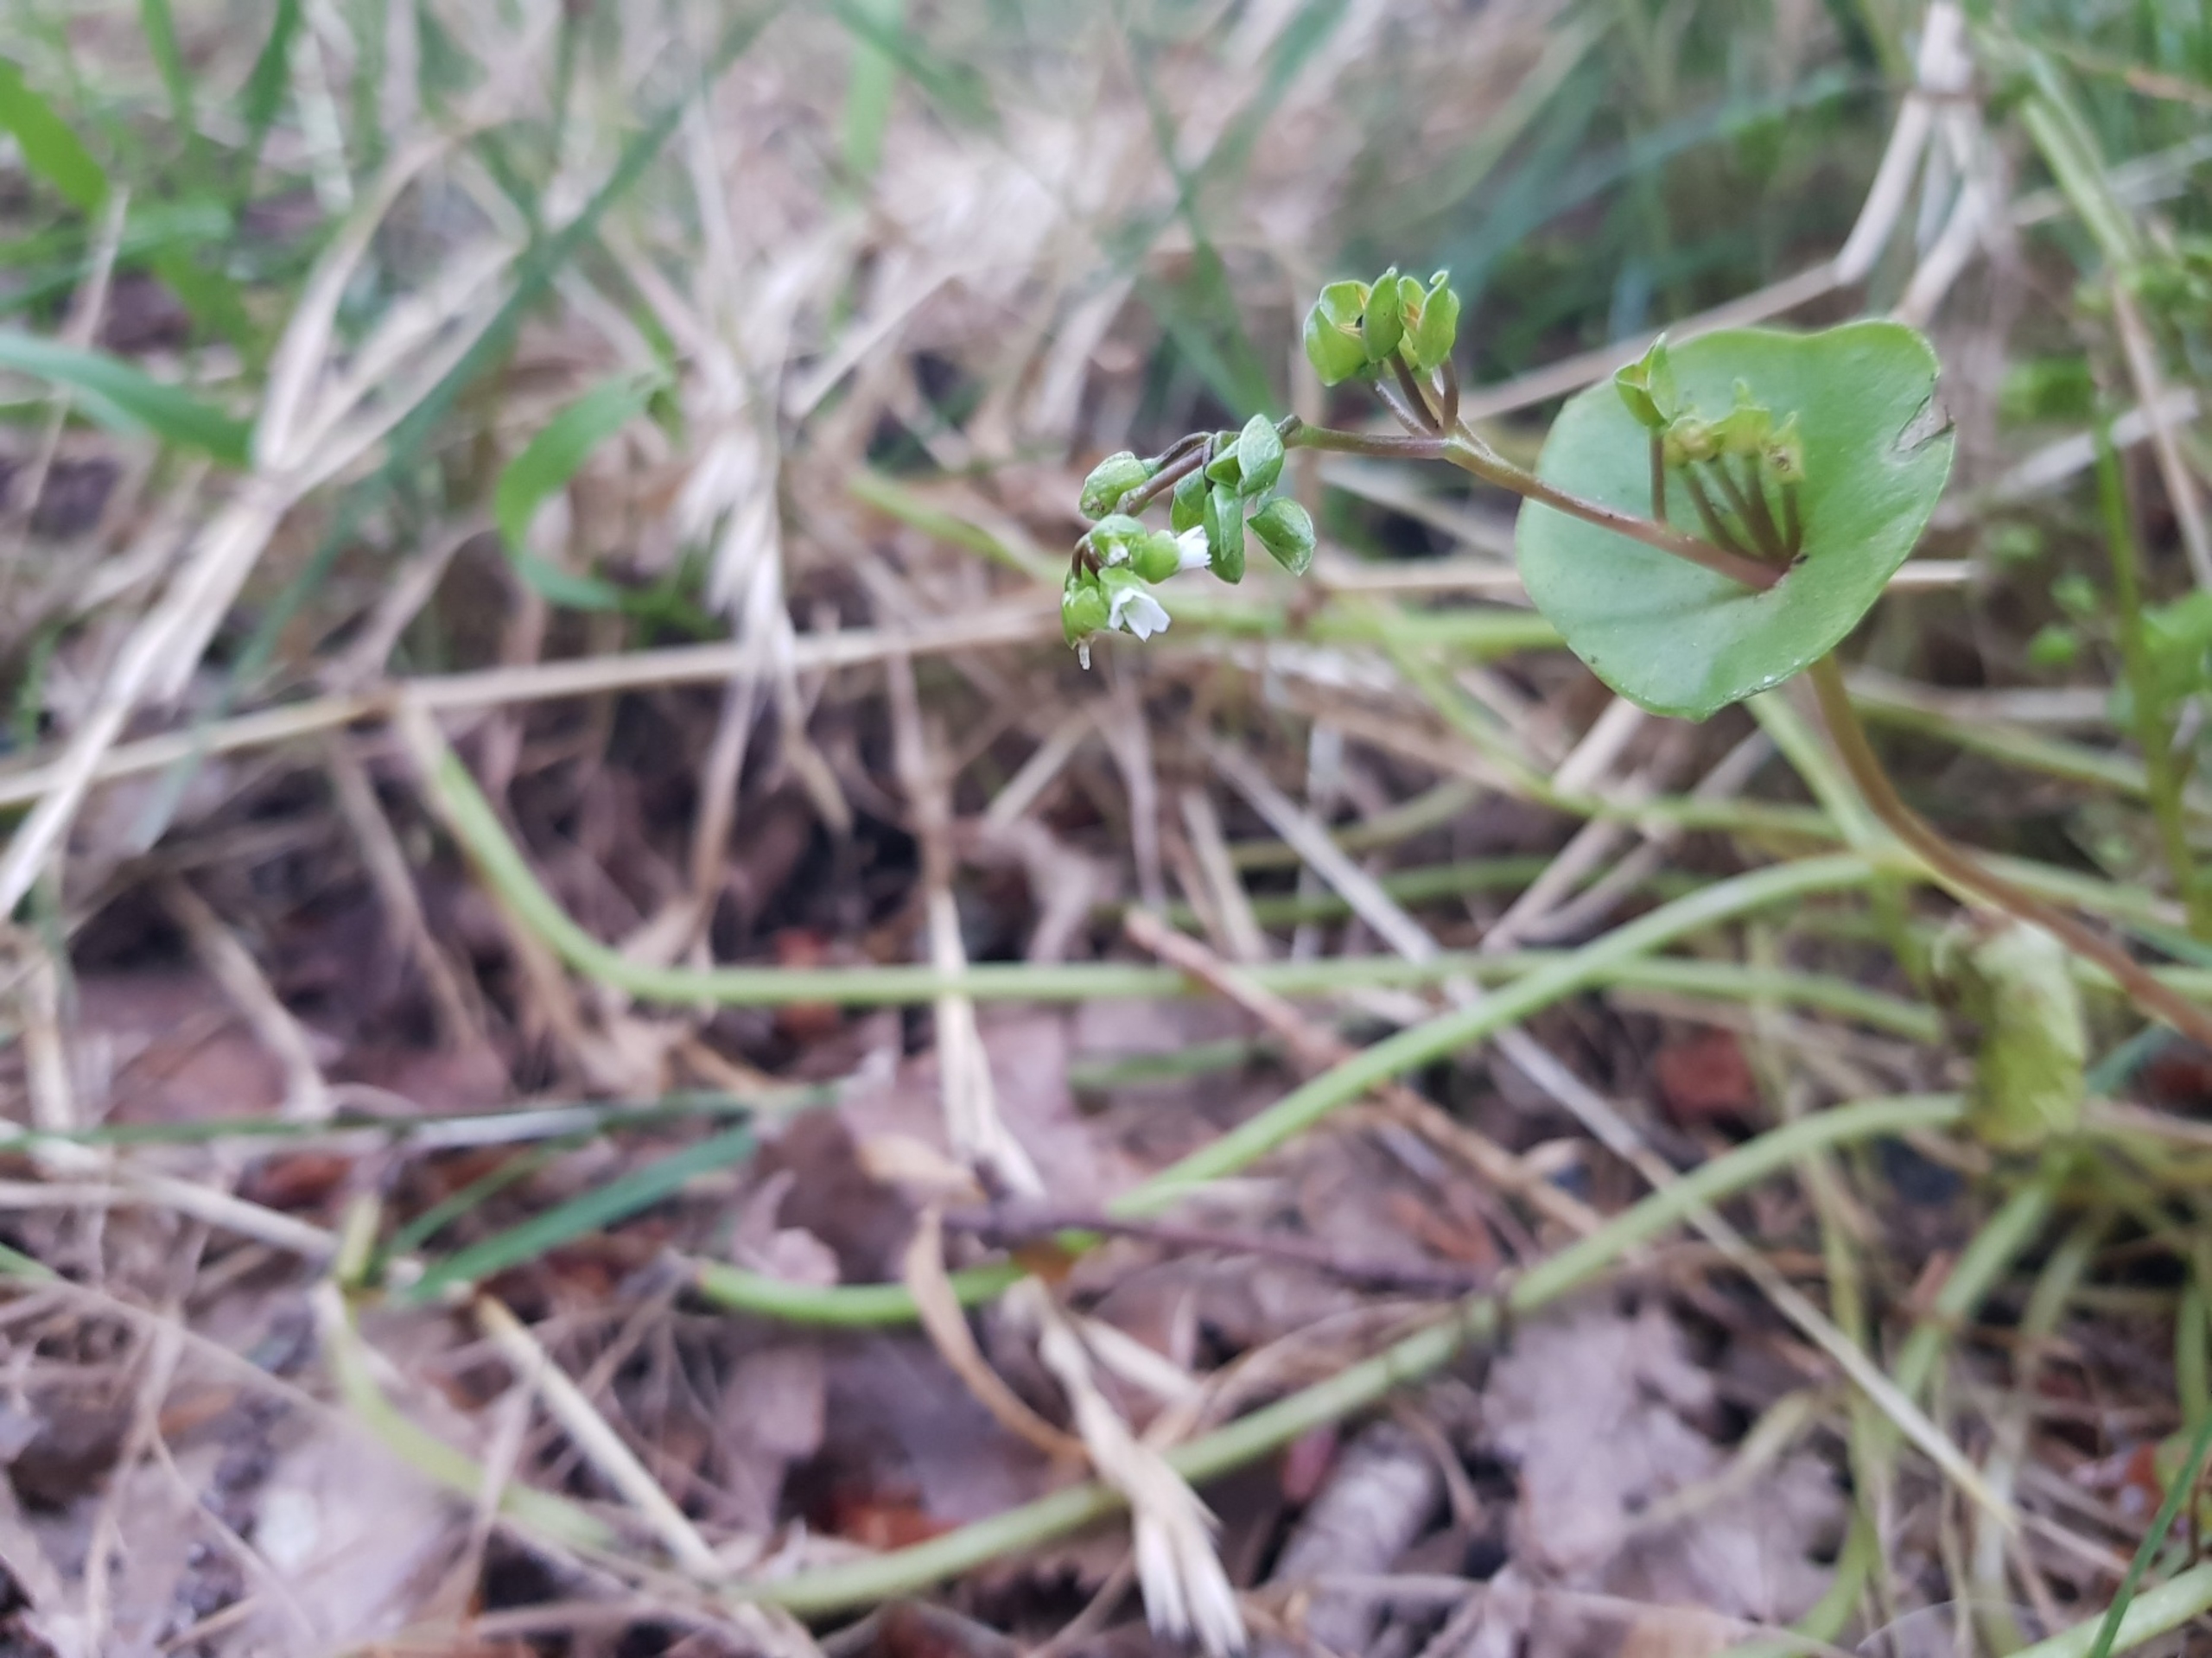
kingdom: Plantae
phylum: Tracheophyta
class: Magnoliopsida
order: Caryophyllales
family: Montiaceae
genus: Claytonia
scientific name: Claytonia perfoliata
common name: Spiselig vinterportulak
